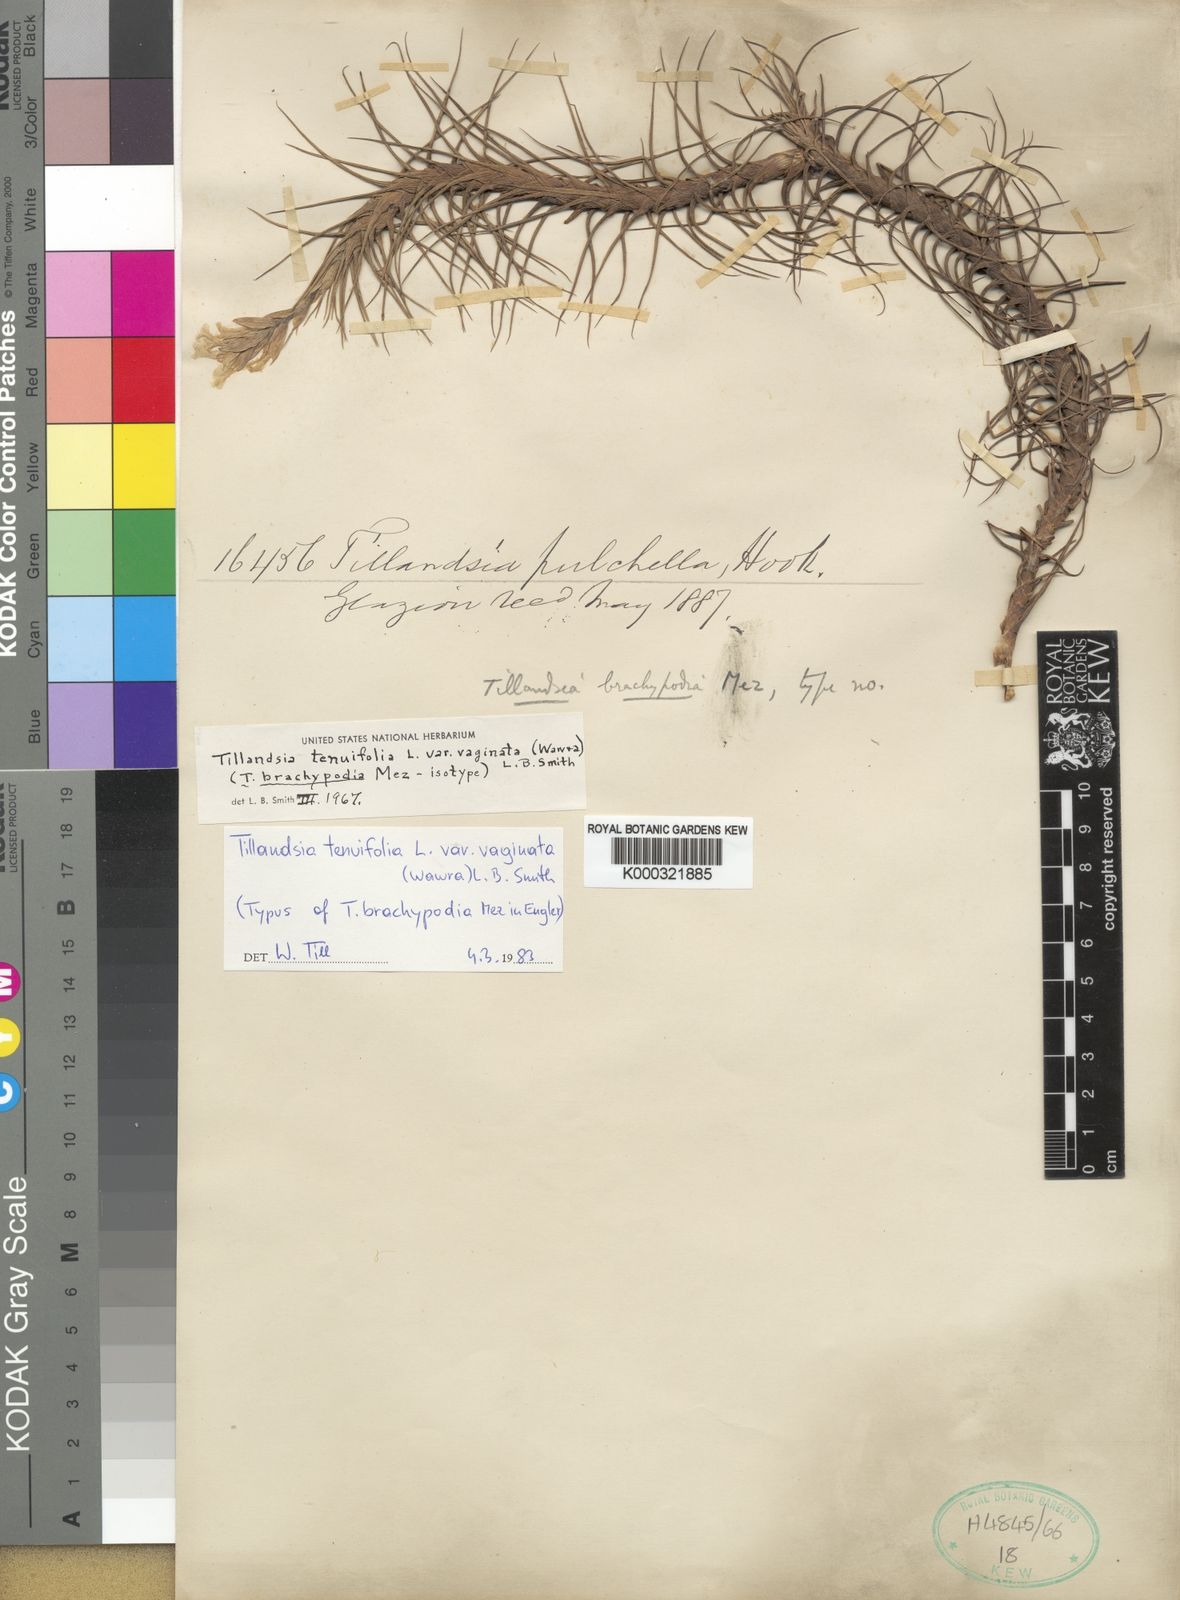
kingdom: Plantae
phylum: Tracheophyta
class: Liliopsida
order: Poales
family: Bromeliaceae
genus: Tillandsia
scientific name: Tillandsia tenuifolia
